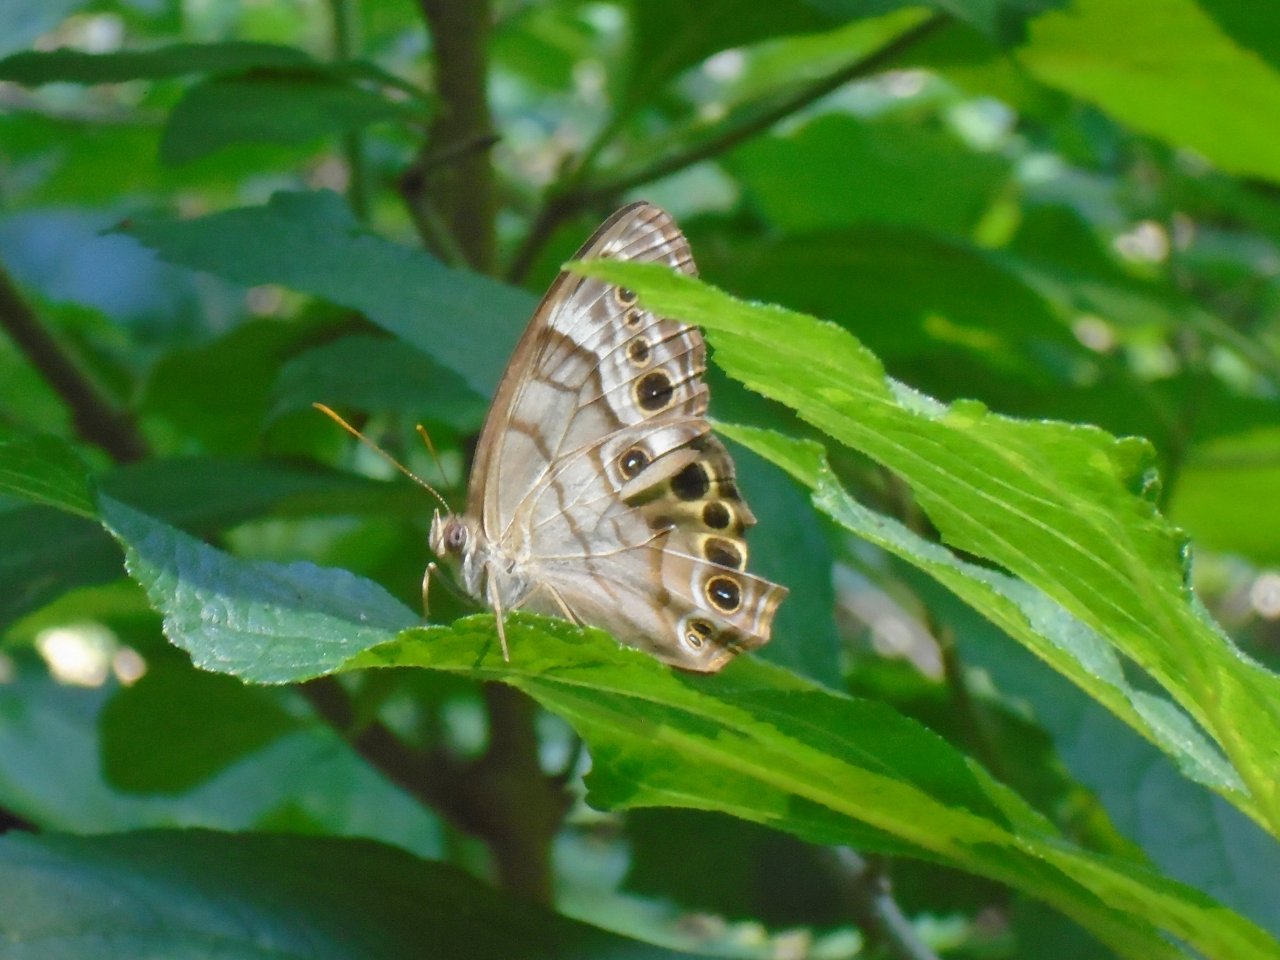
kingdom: Animalia
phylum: Arthropoda
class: Insecta
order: Lepidoptera
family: Nymphalidae
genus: Enodia
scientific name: Enodia portlandia
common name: Southern Pearly Eye
